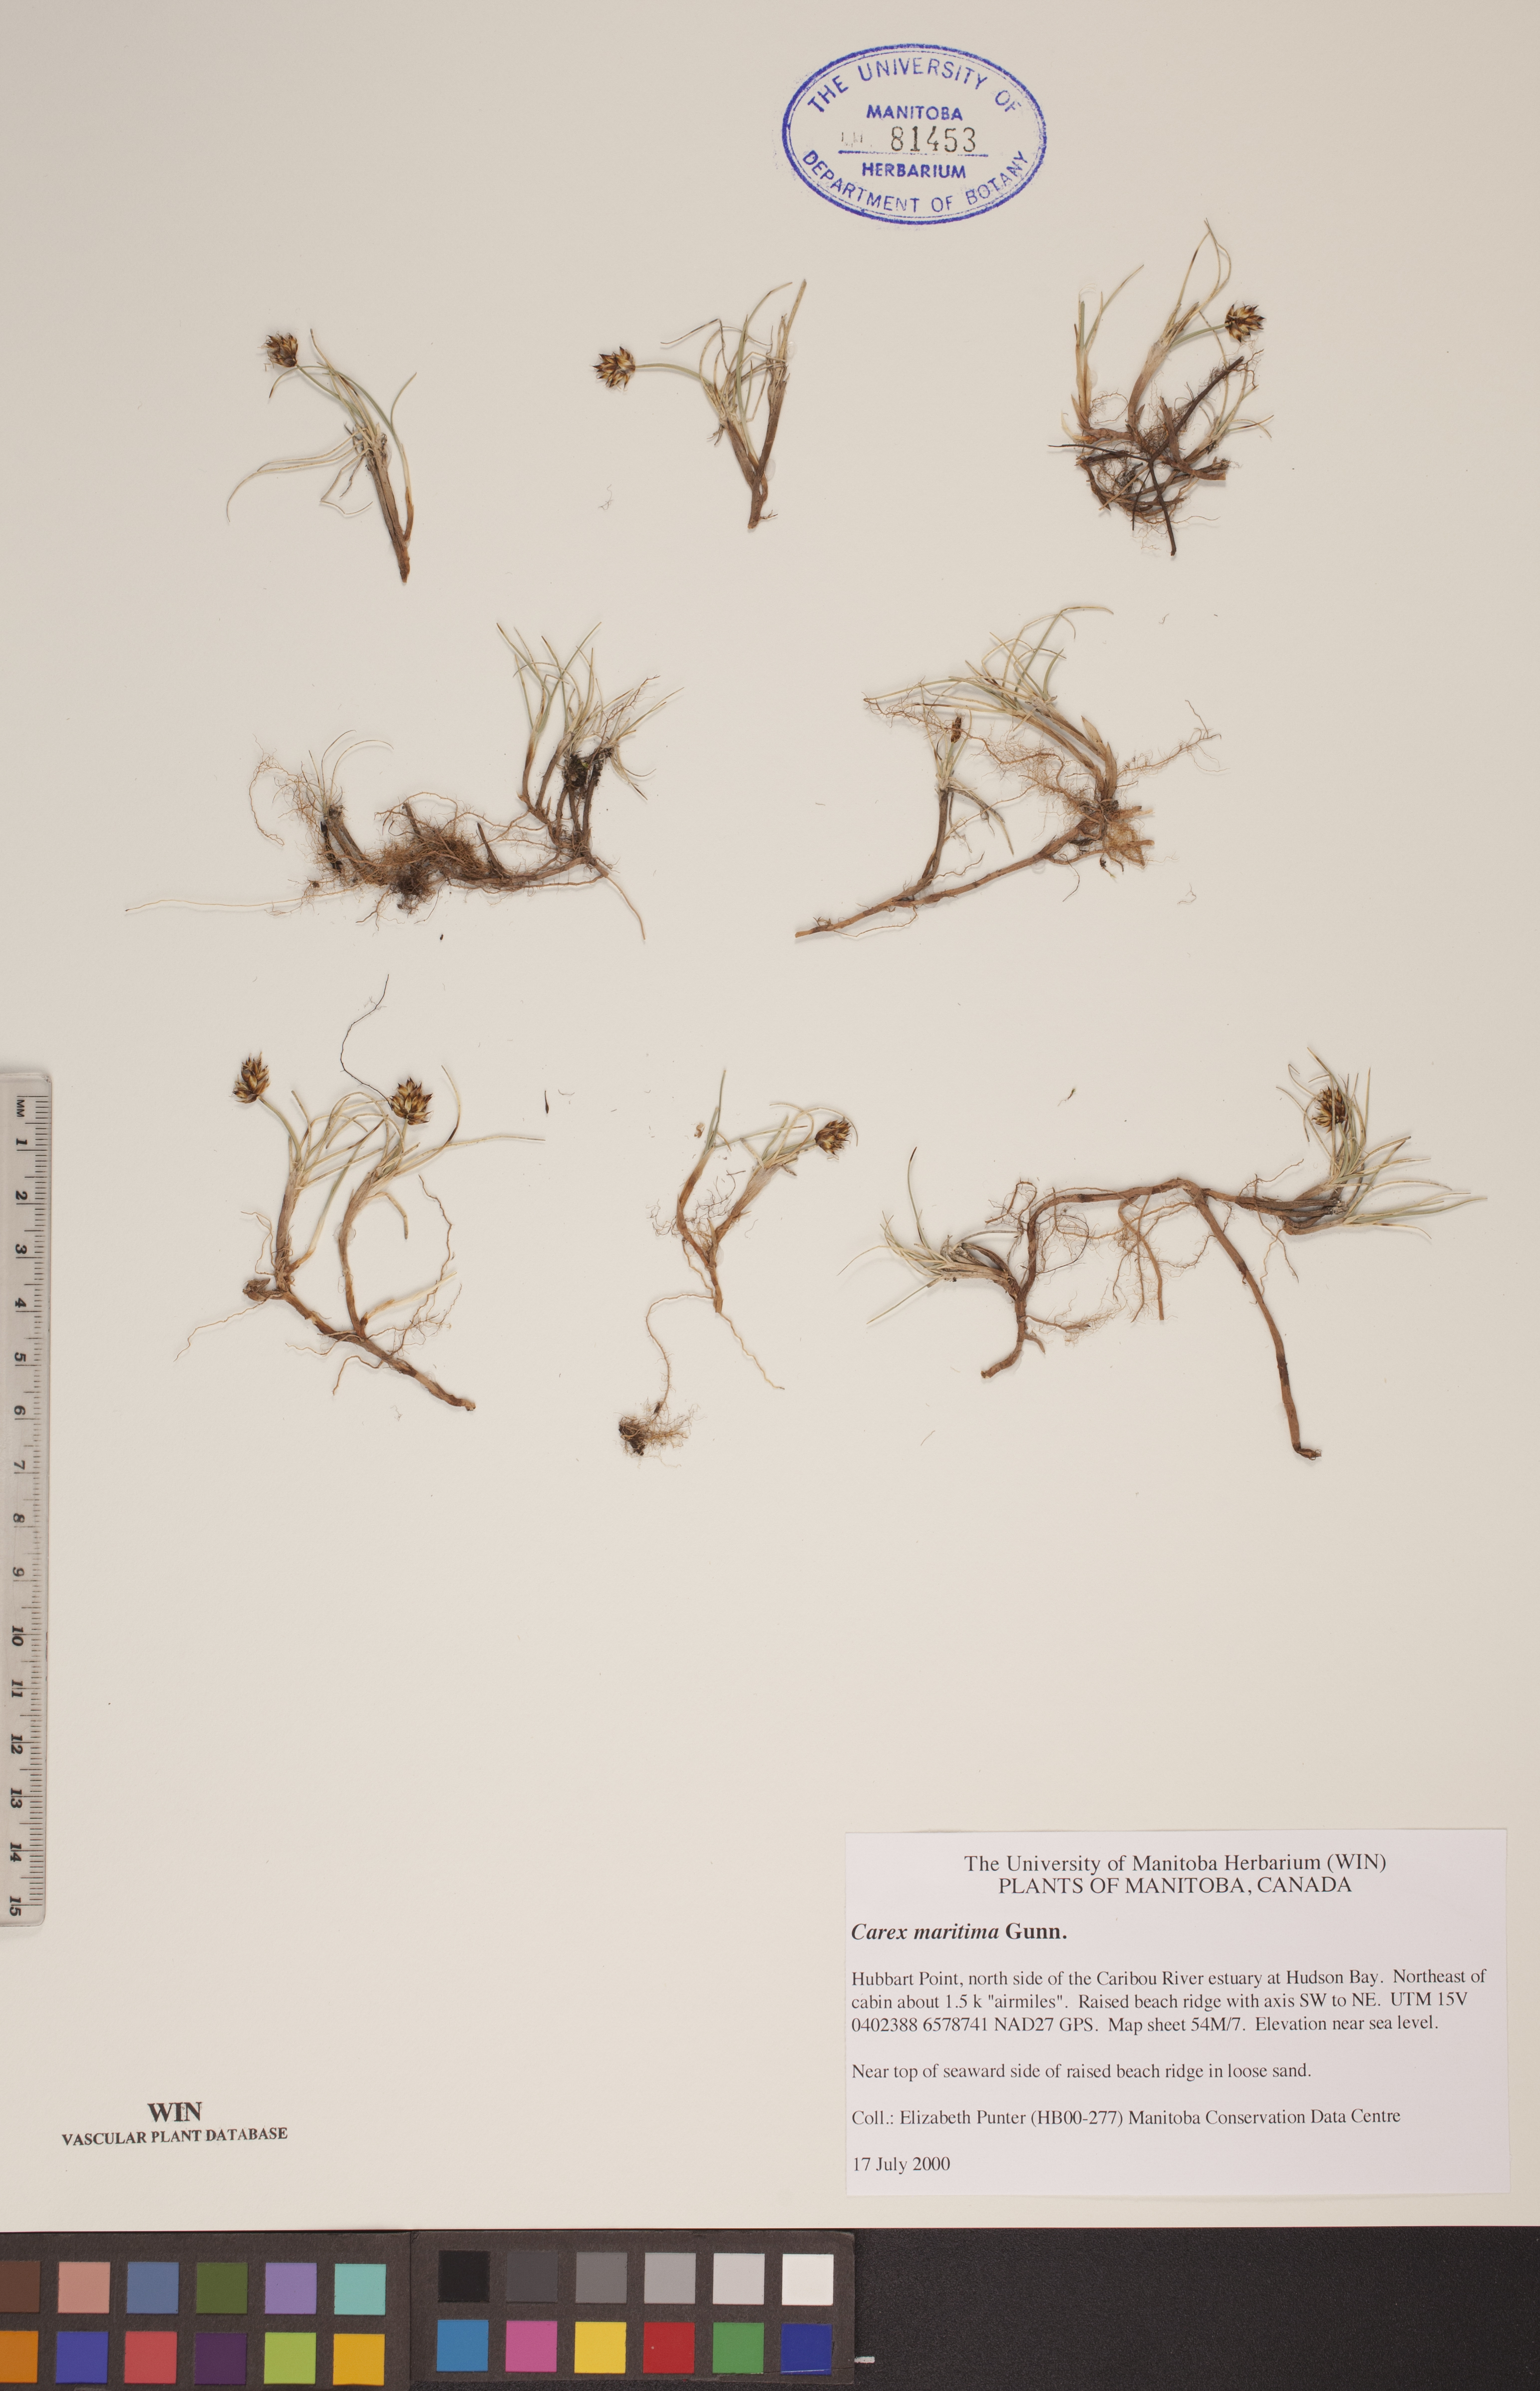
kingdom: Plantae
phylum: Tracheophyta
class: Liliopsida
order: Poales
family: Cyperaceae
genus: Carex
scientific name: Carex maritima
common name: Curved sedge
